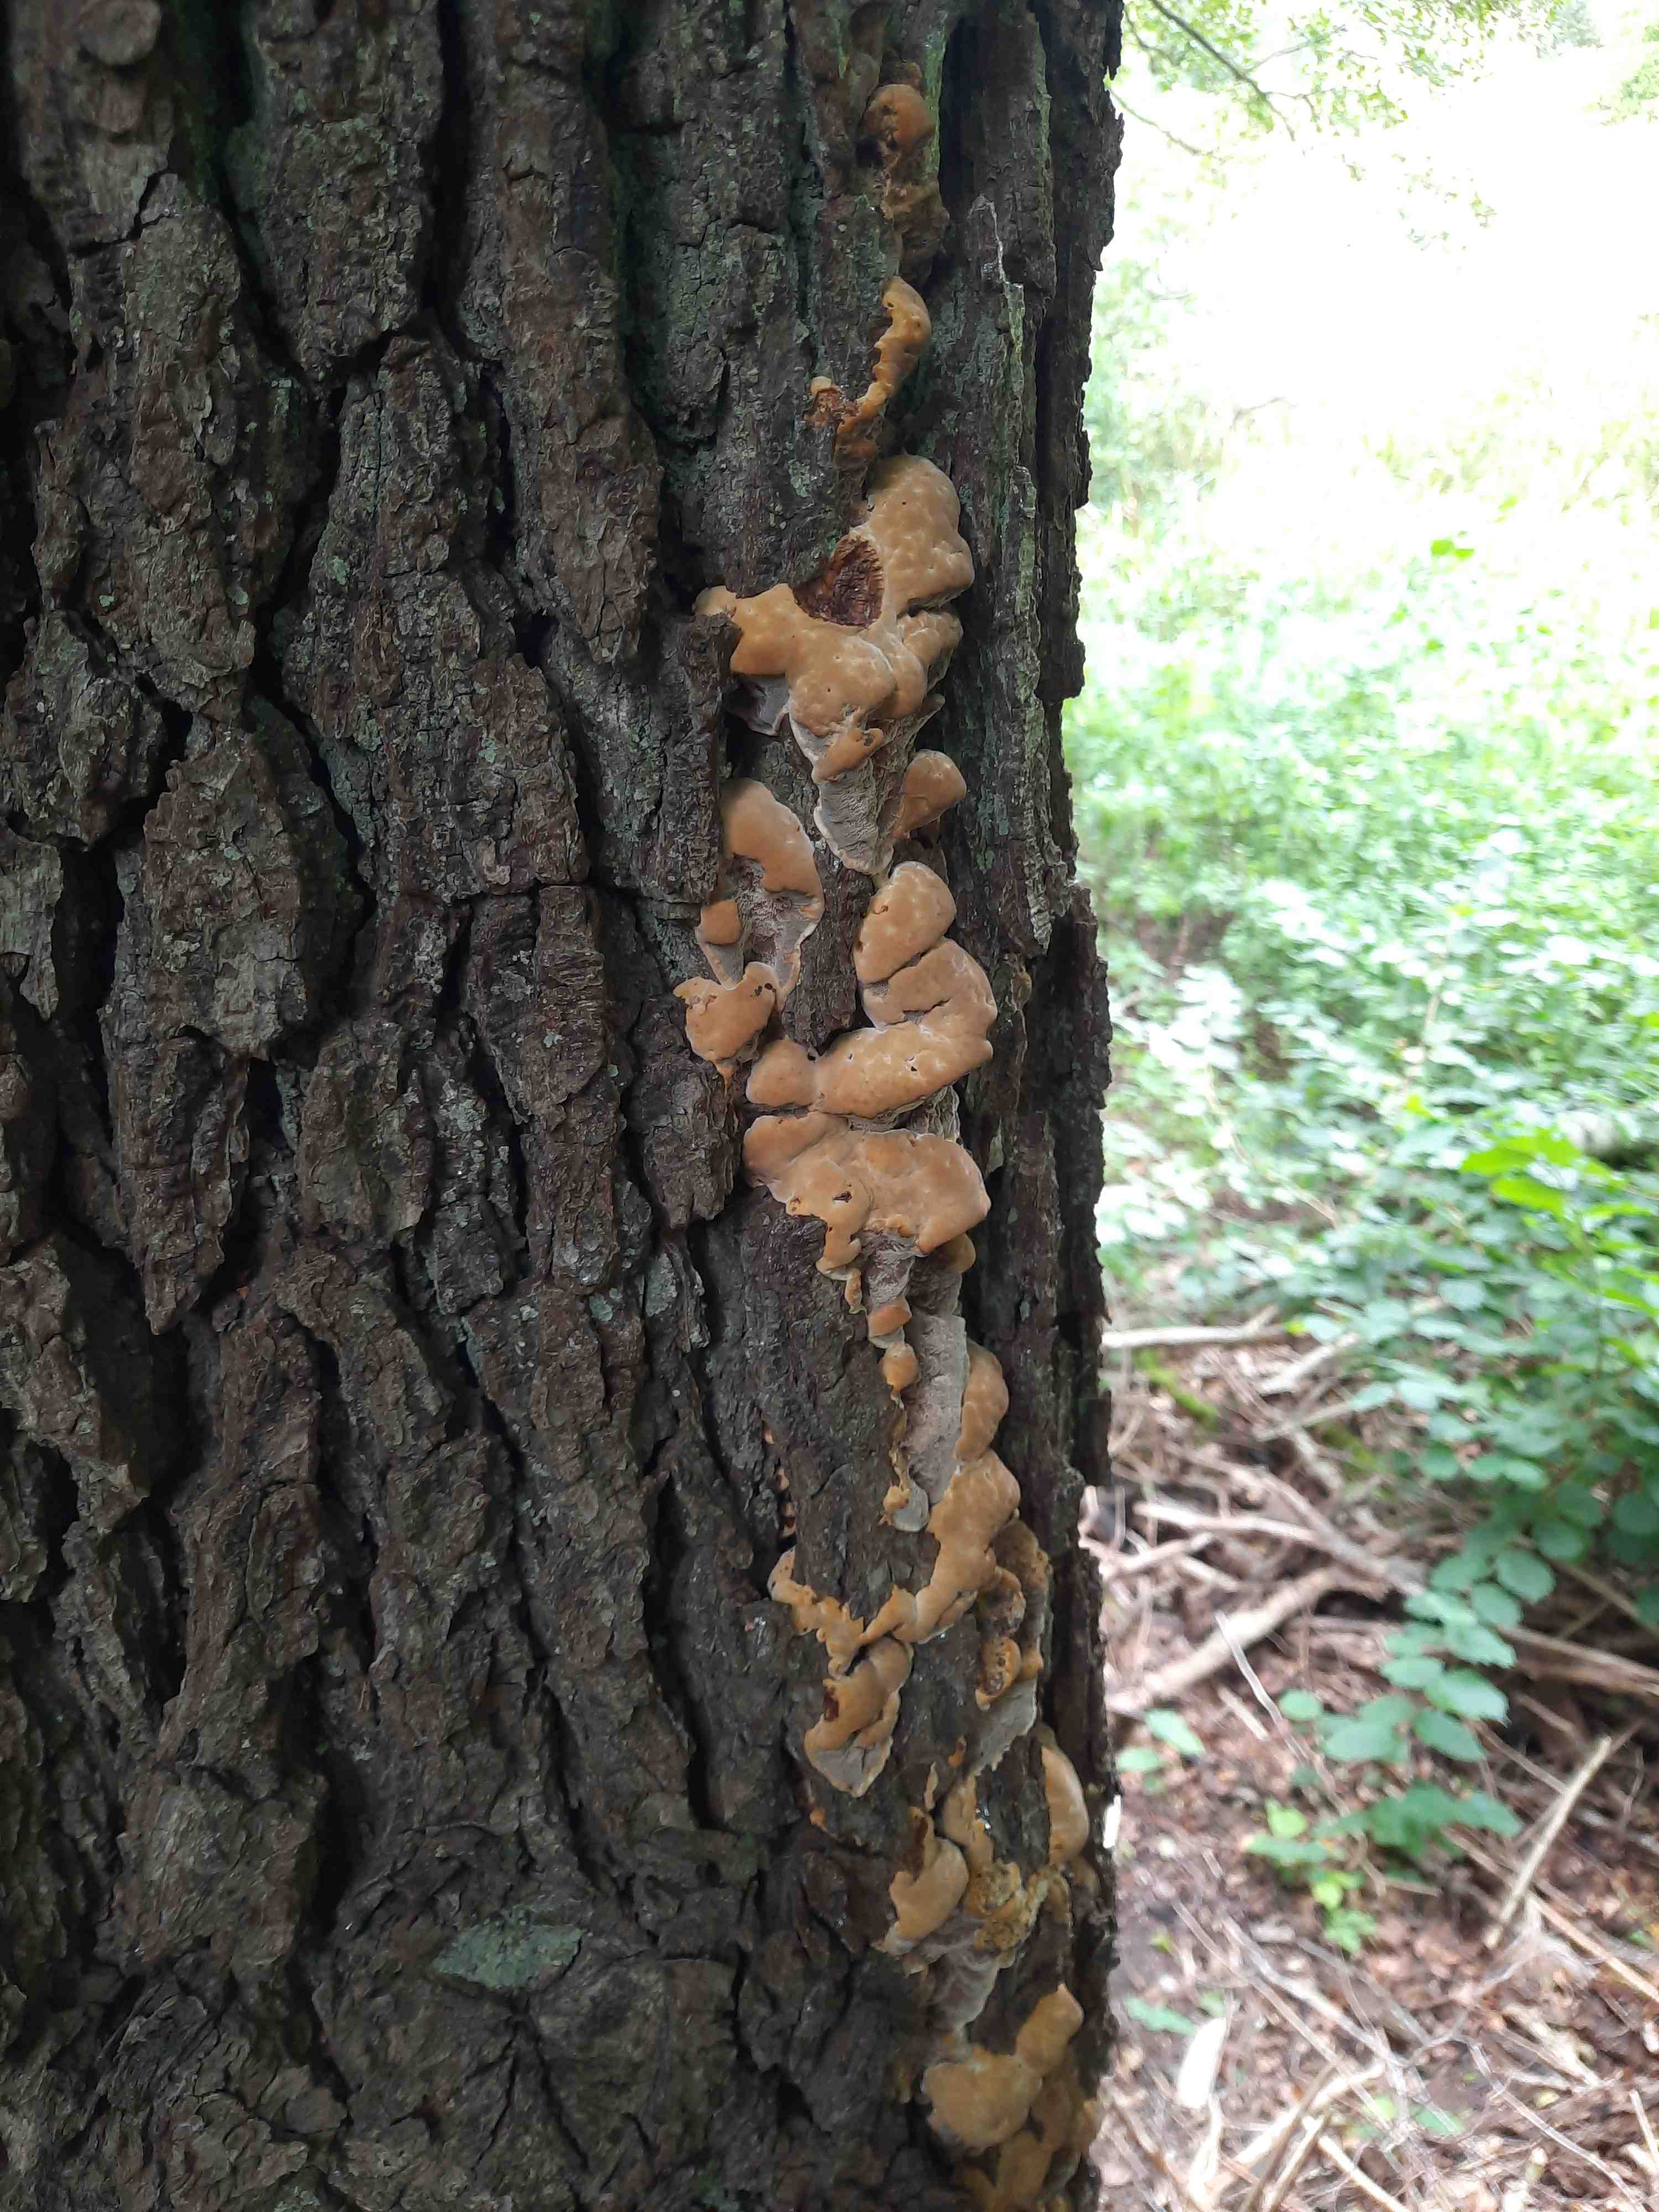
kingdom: Fungi
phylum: Basidiomycota
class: Agaricomycetes
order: Hymenochaetales
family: Hymenochaetaceae
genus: Xanthoporia
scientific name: Xanthoporia radiata
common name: elle-spejlporesvamp
